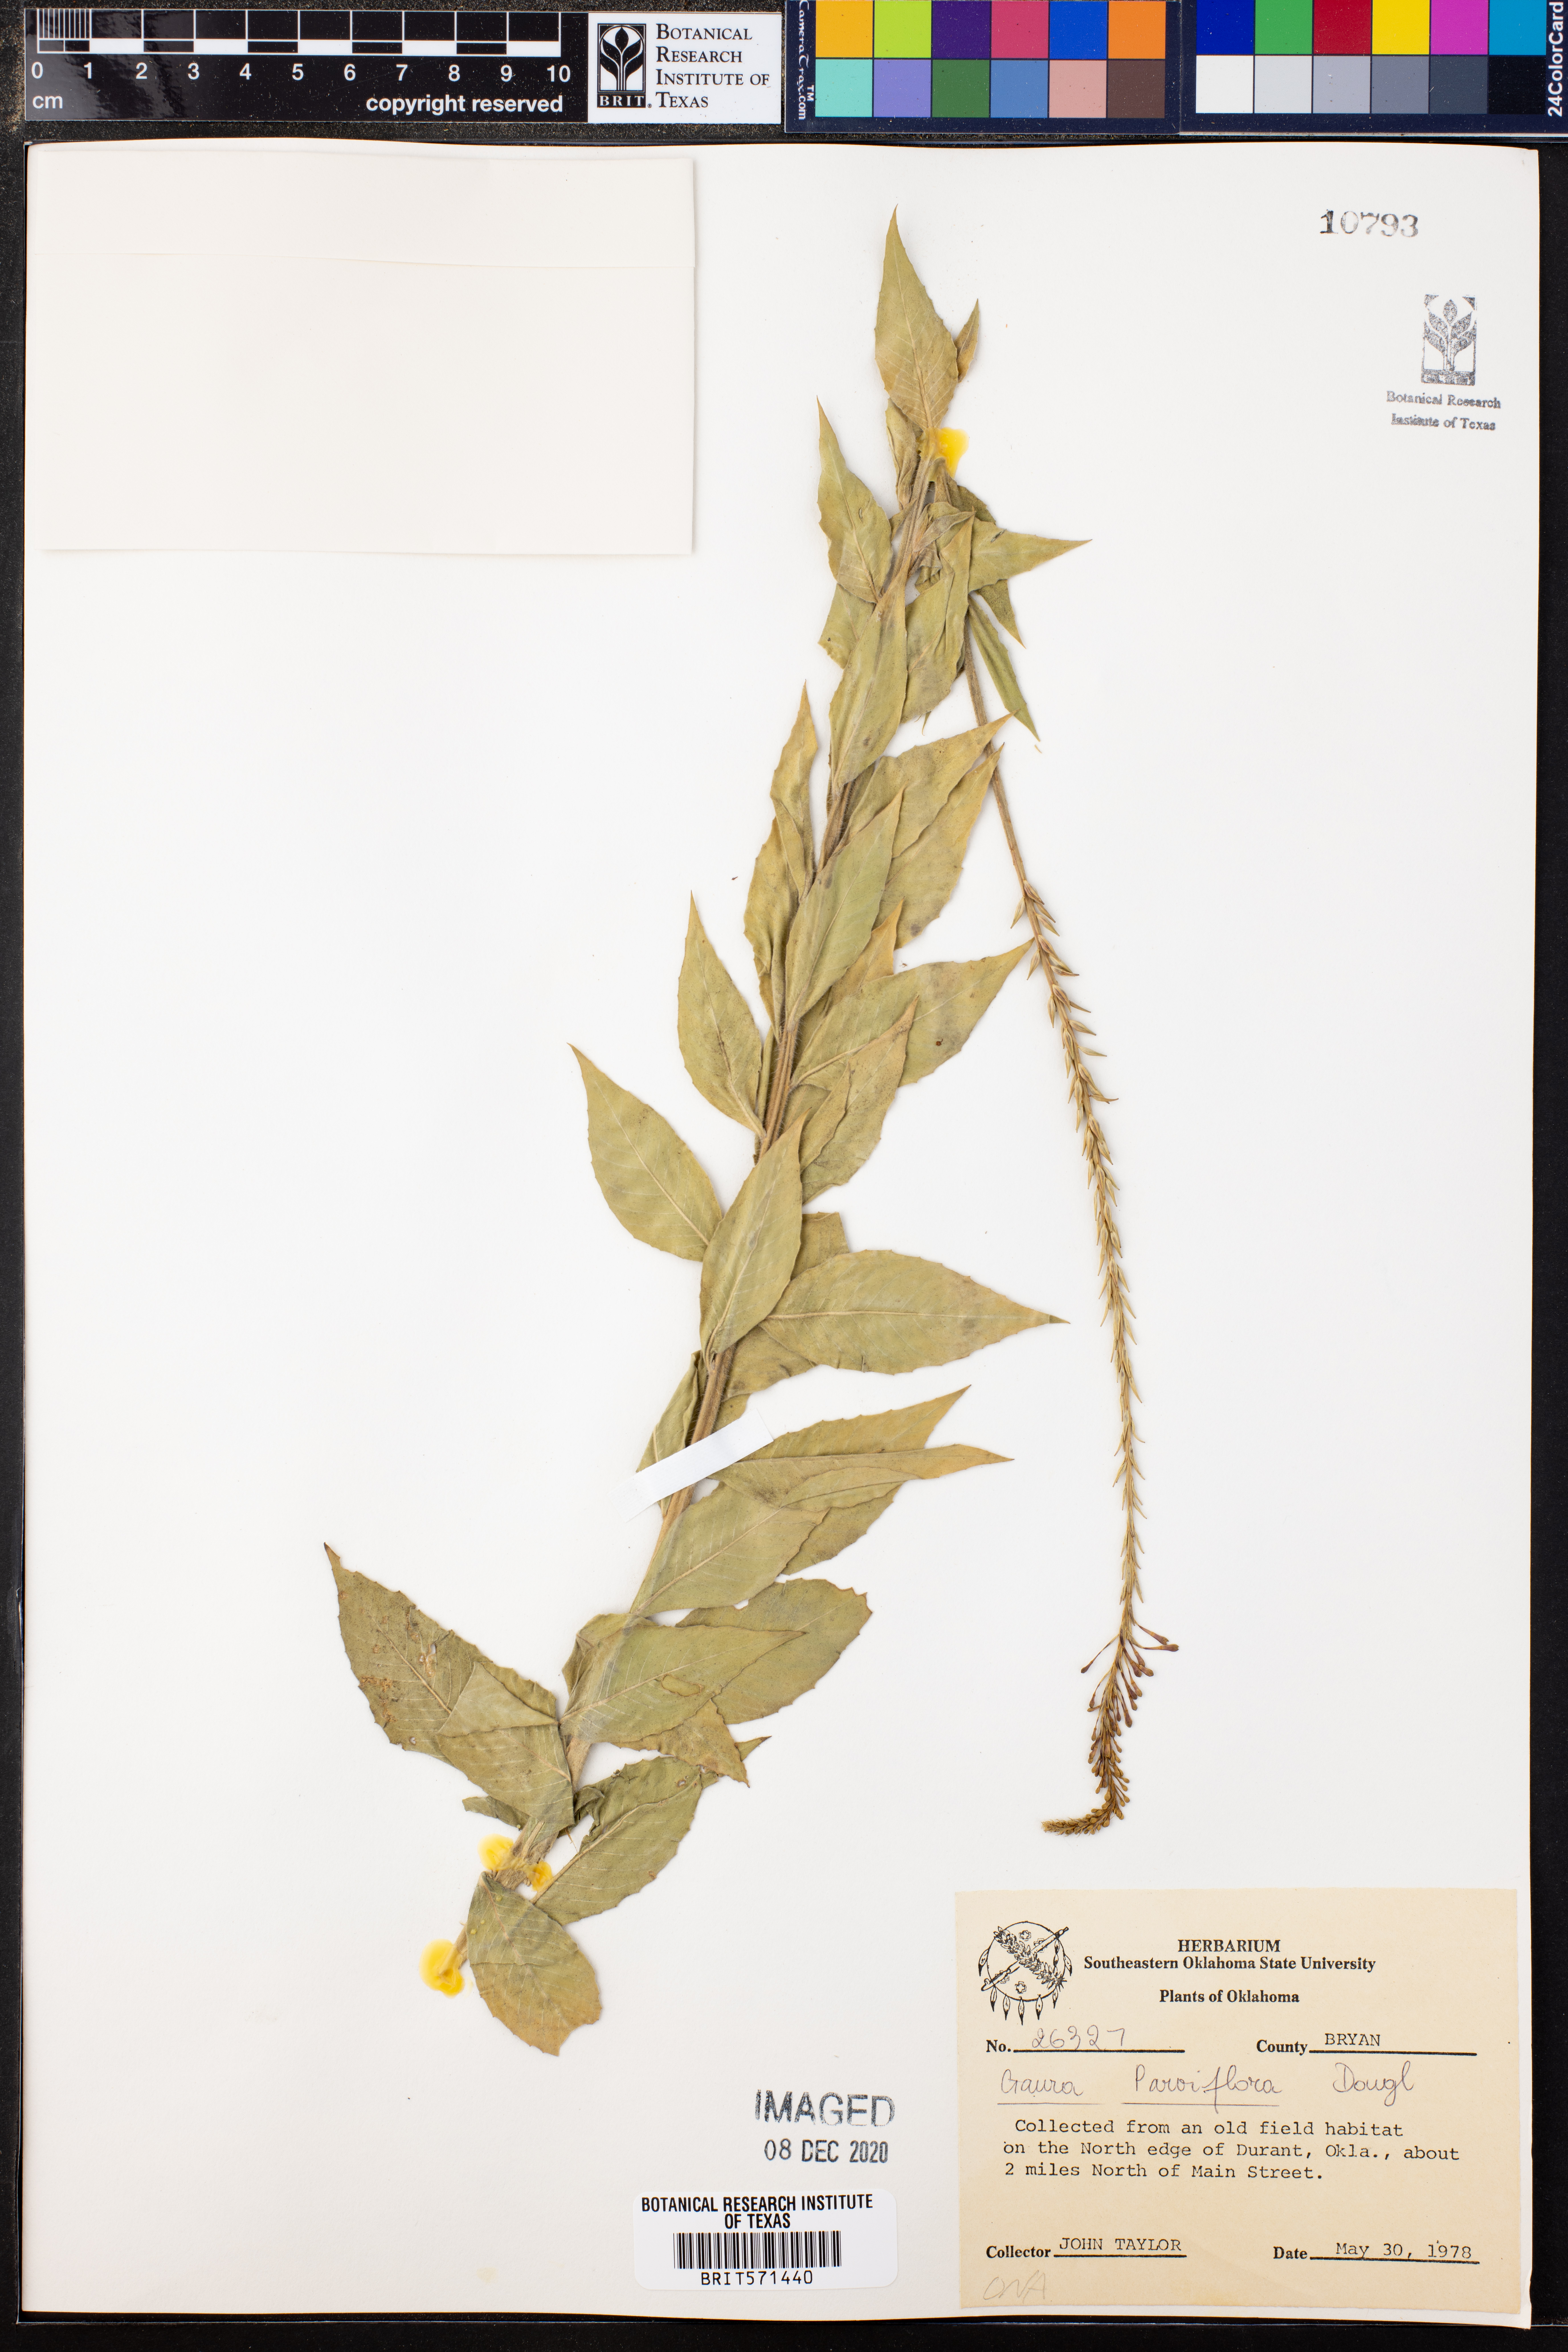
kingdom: Plantae
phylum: Tracheophyta
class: Magnoliopsida
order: Myrtales
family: Onagraceae
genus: Oenothera
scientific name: Oenothera curtiflora
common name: Velvetweed
